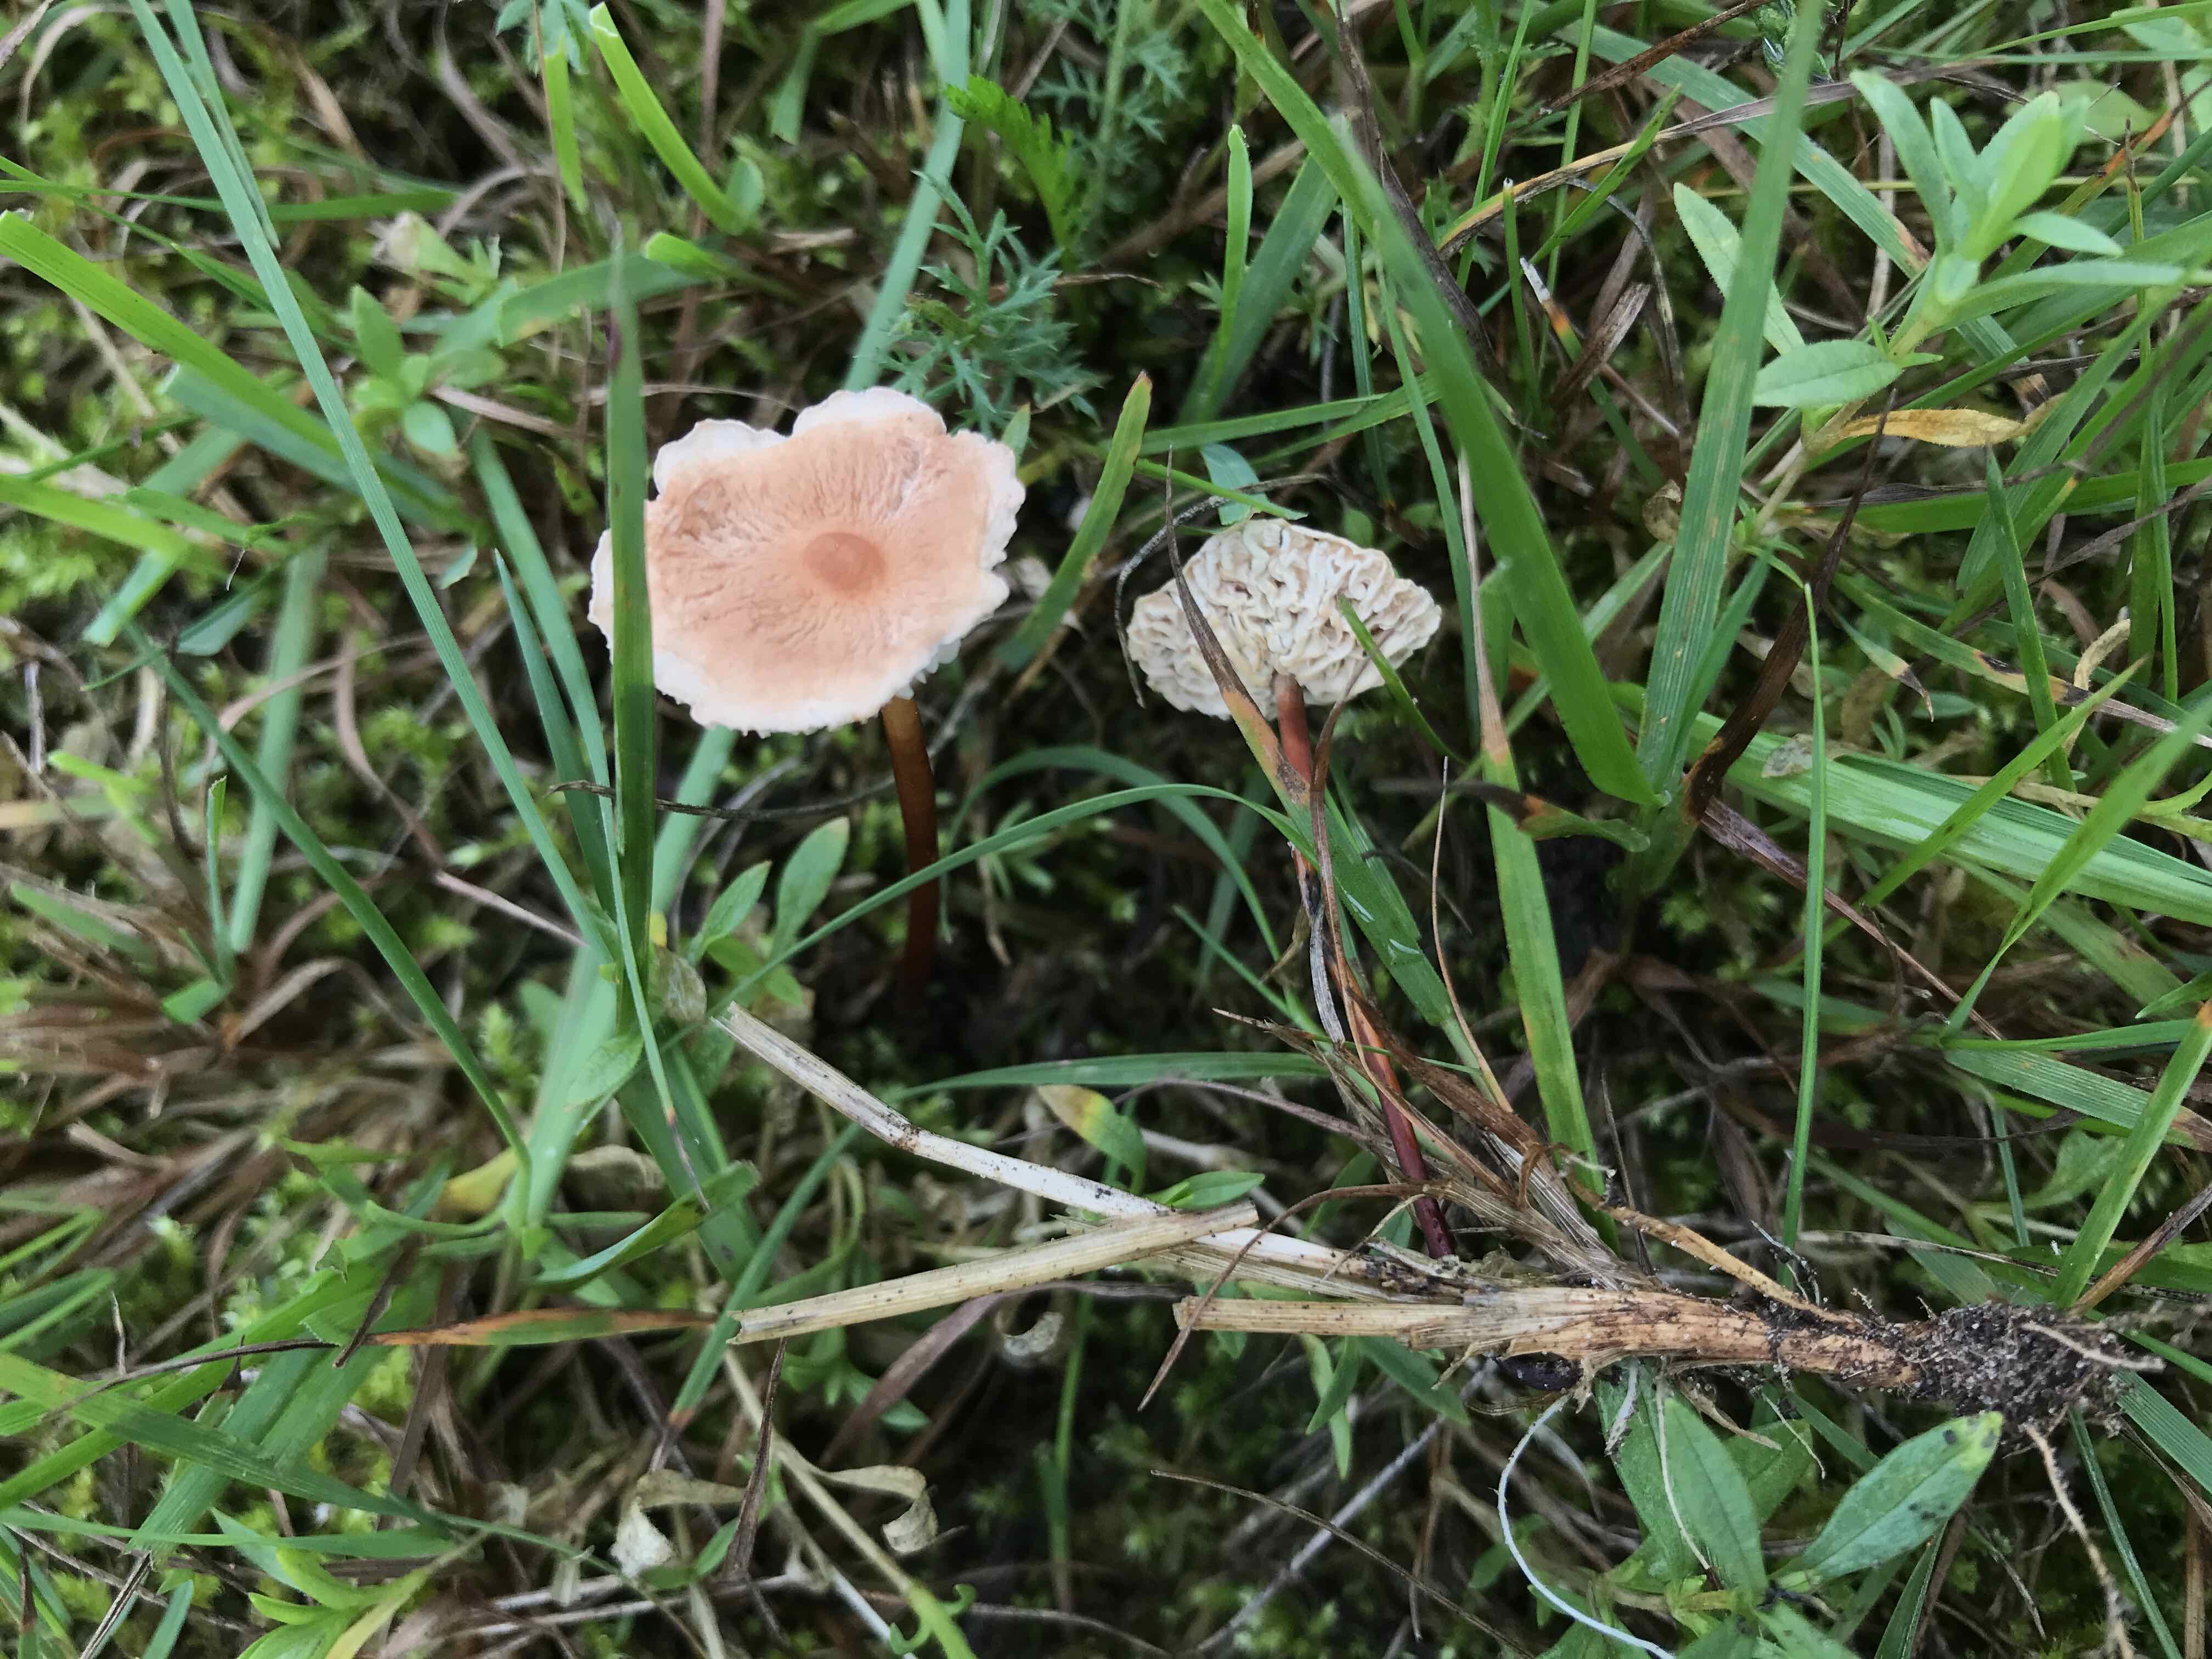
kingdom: Fungi
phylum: Basidiomycota
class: Agaricomycetes
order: Agaricales
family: Omphalotaceae
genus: Mycetinis
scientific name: Mycetinis scorodonius
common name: lille løghat
